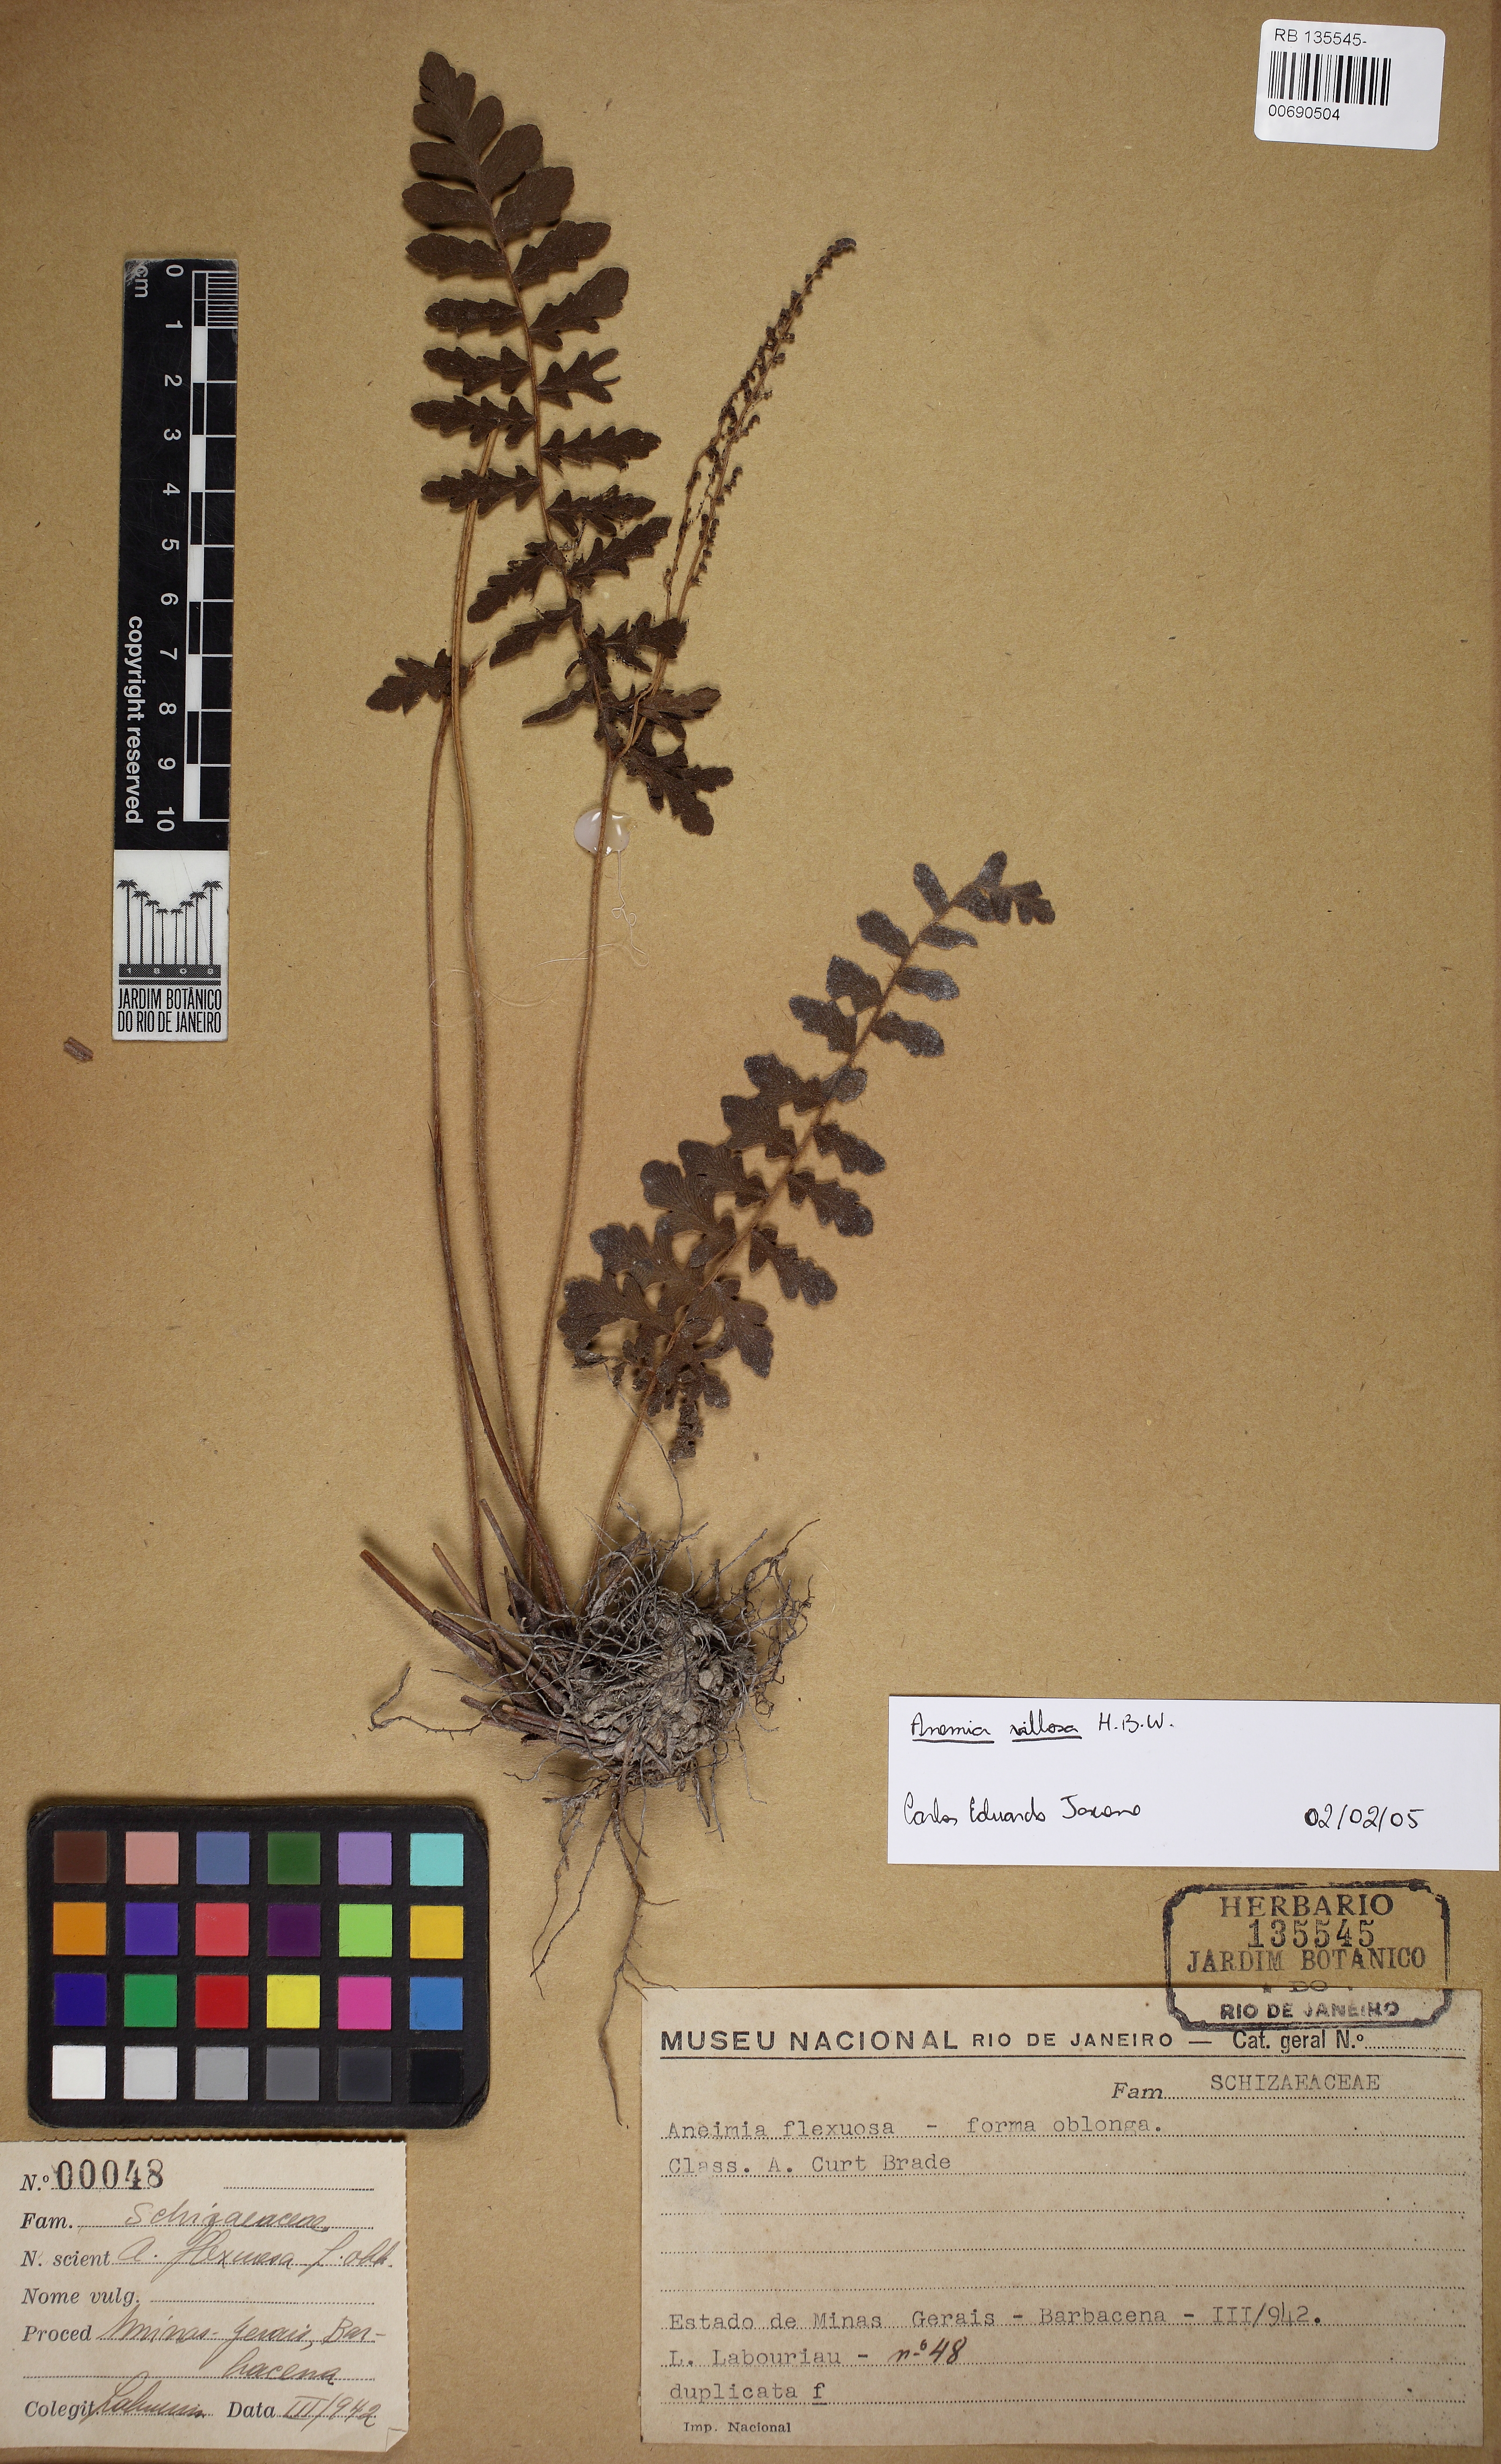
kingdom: Plantae
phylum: Tracheophyta
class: Polypodiopsida
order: Schizaeales
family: Anemiaceae
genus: Anemia
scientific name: Anemia villosa
